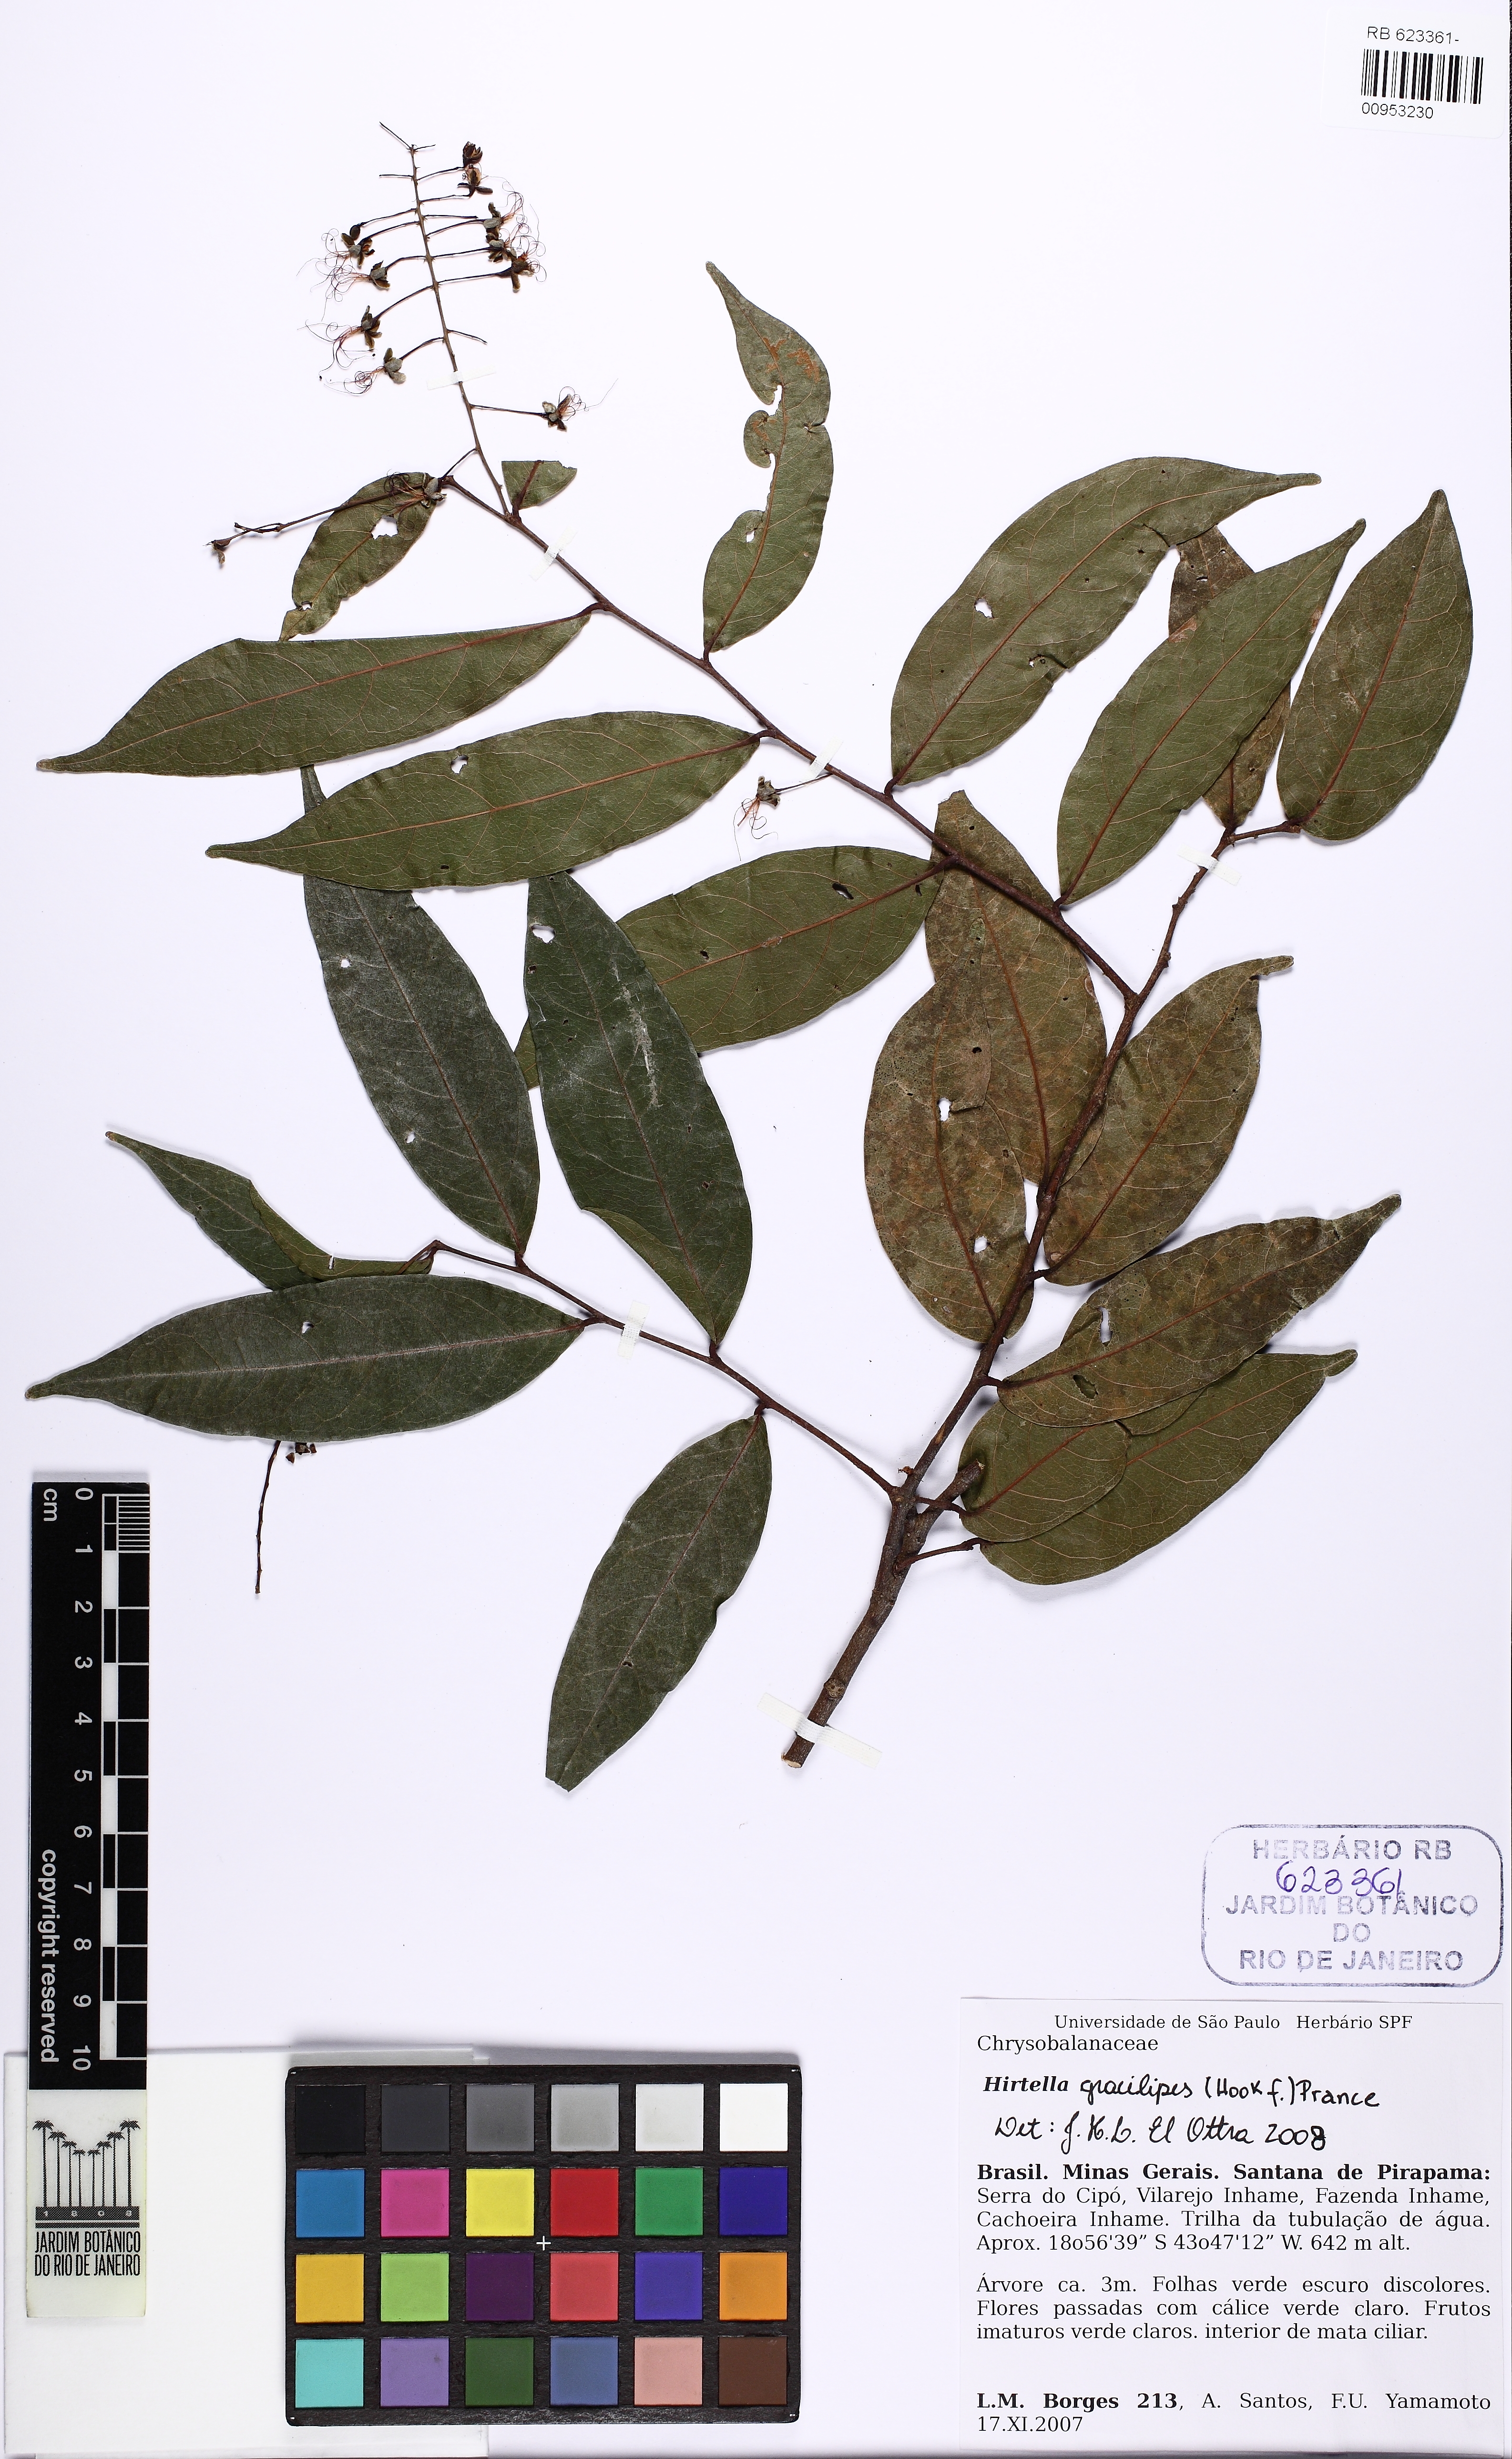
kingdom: Plantae
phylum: Tracheophyta
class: Magnoliopsida
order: Malpighiales
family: Chrysobalanaceae
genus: Hirtella
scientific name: Hirtella gracilipes
